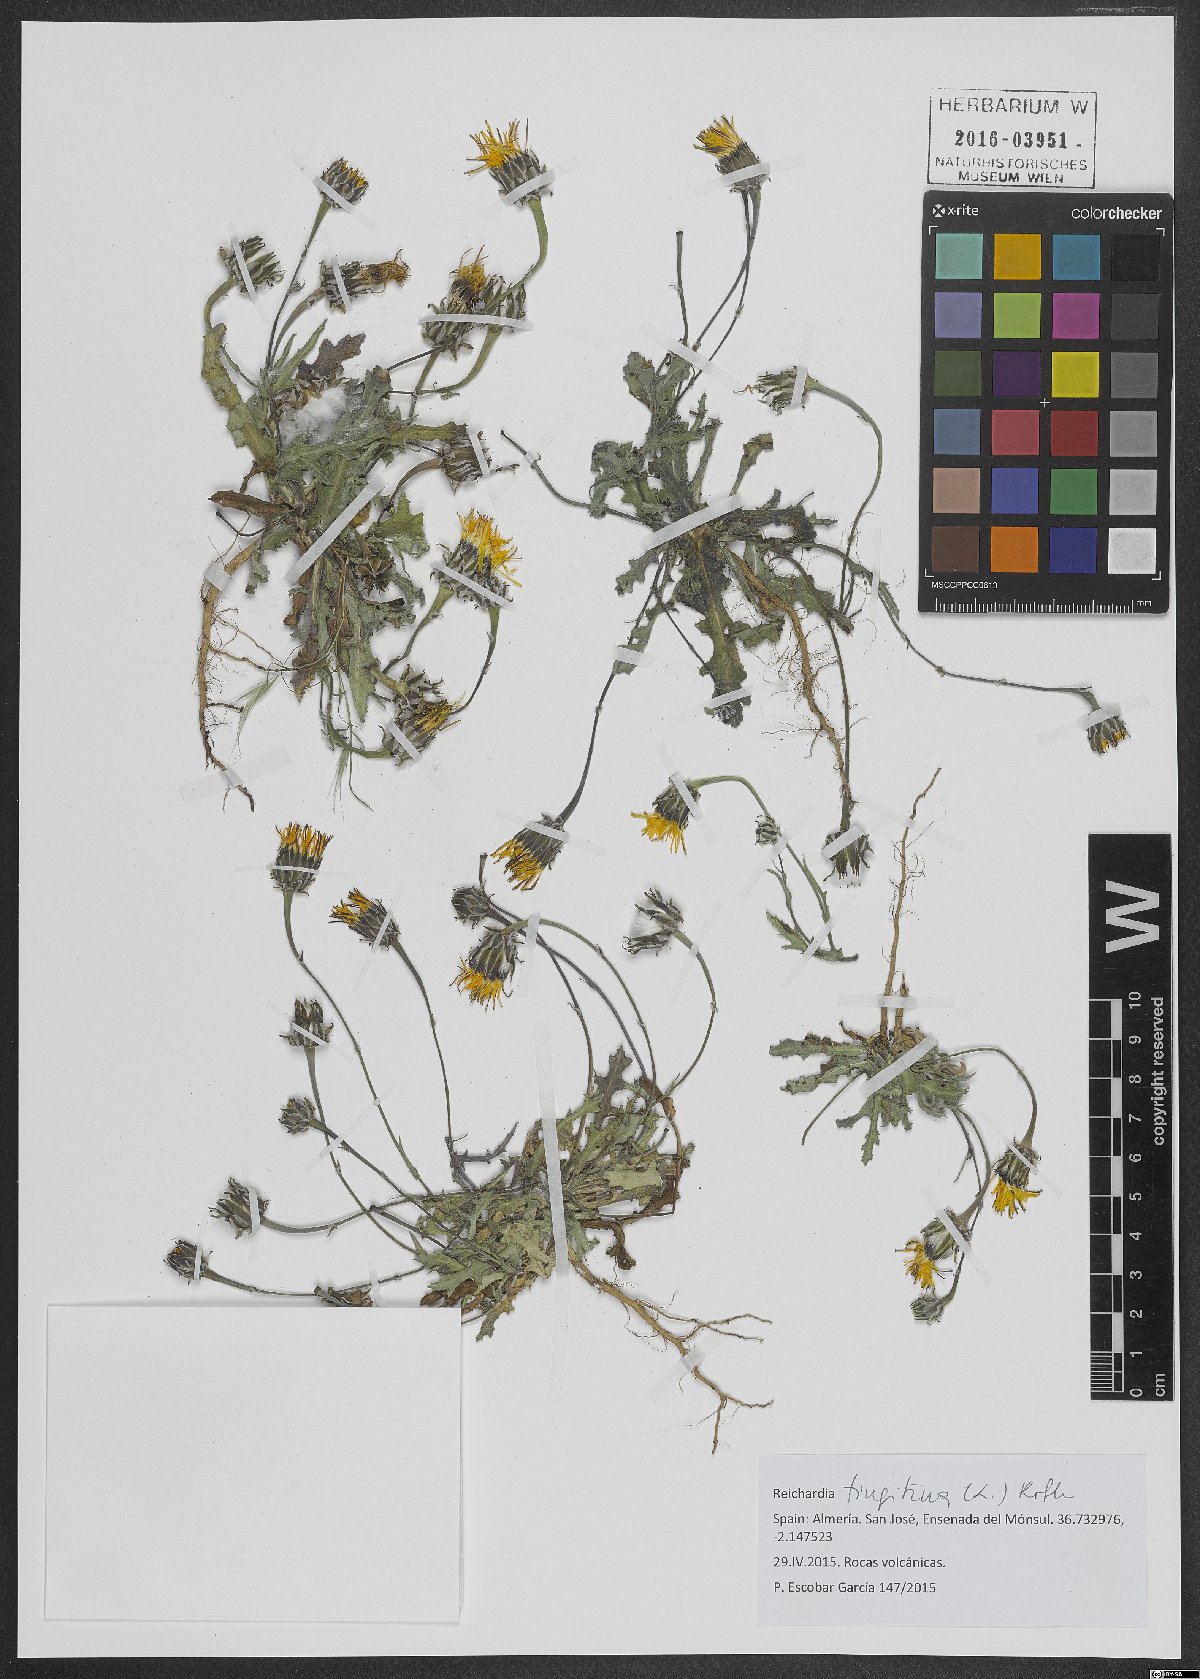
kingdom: Plantae
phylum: Tracheophyta
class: Magnoliopsida
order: Asterales
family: Asteraceae
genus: Reichardia
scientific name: Reichardia tingitana
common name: Reichardia
